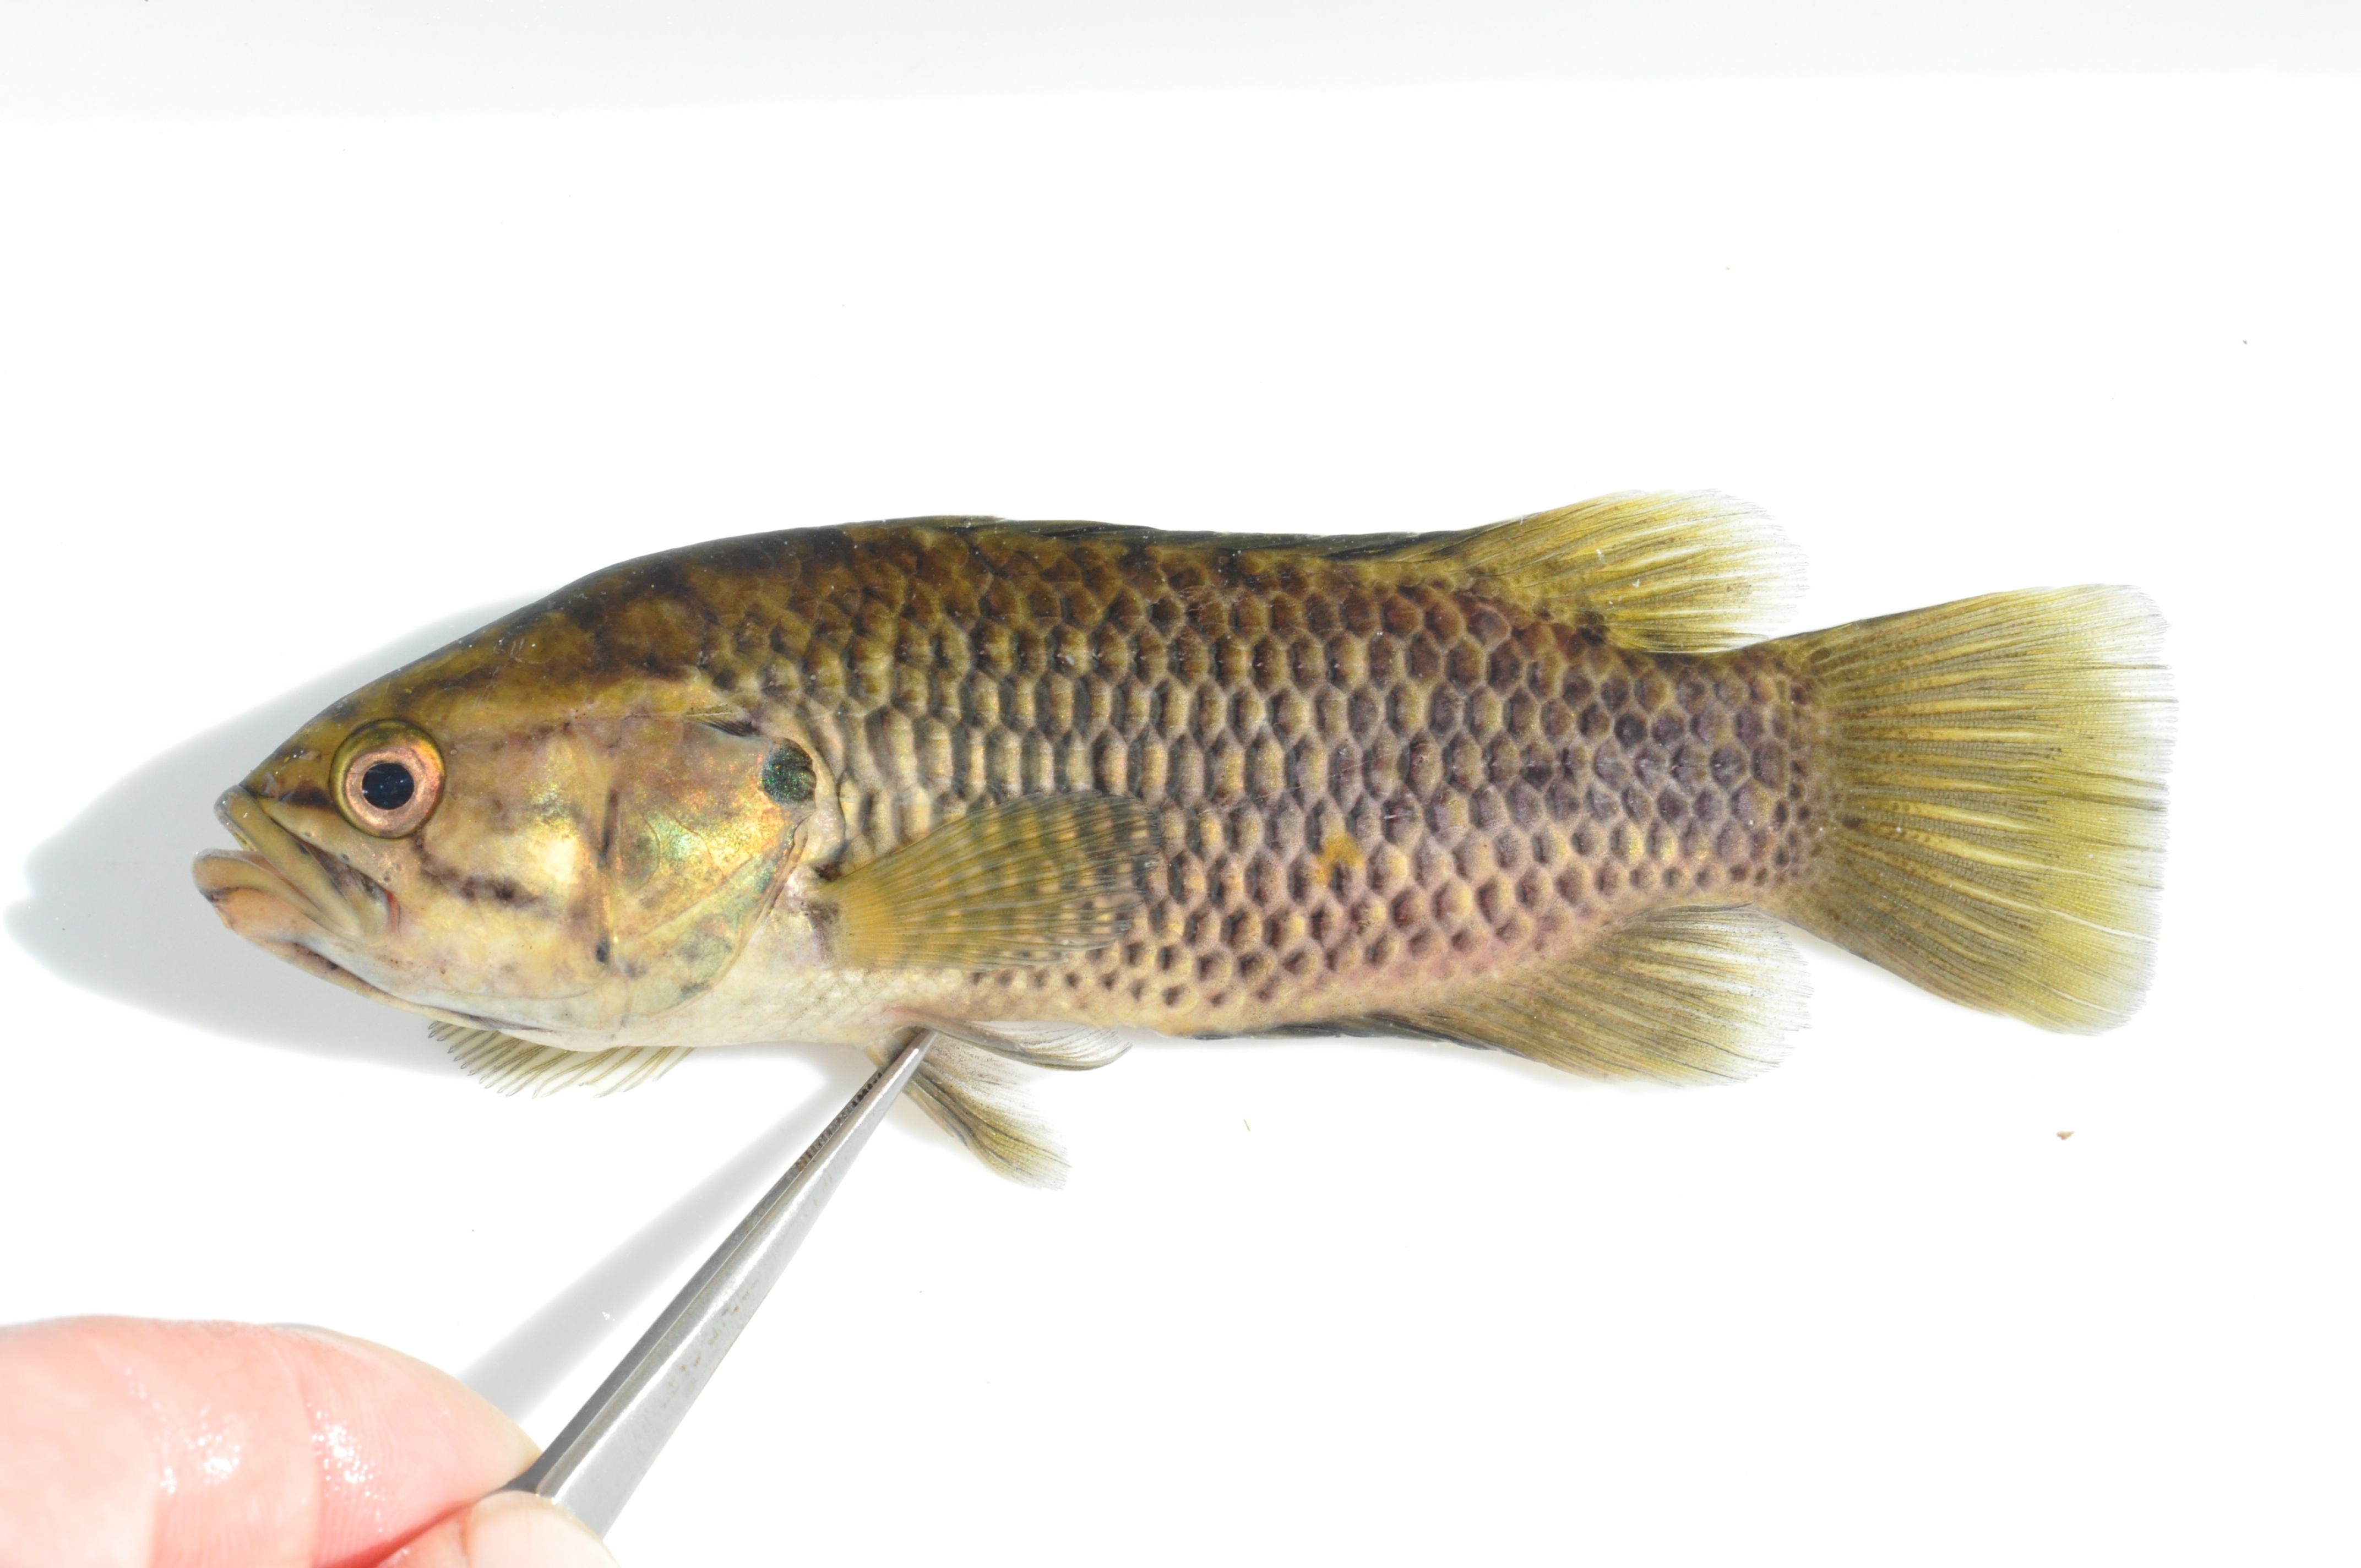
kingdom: Animalia
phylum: Chordata
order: Perciformes
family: Anabantidae
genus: Sandelia
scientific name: Sandelia capensis
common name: Cape kurper
